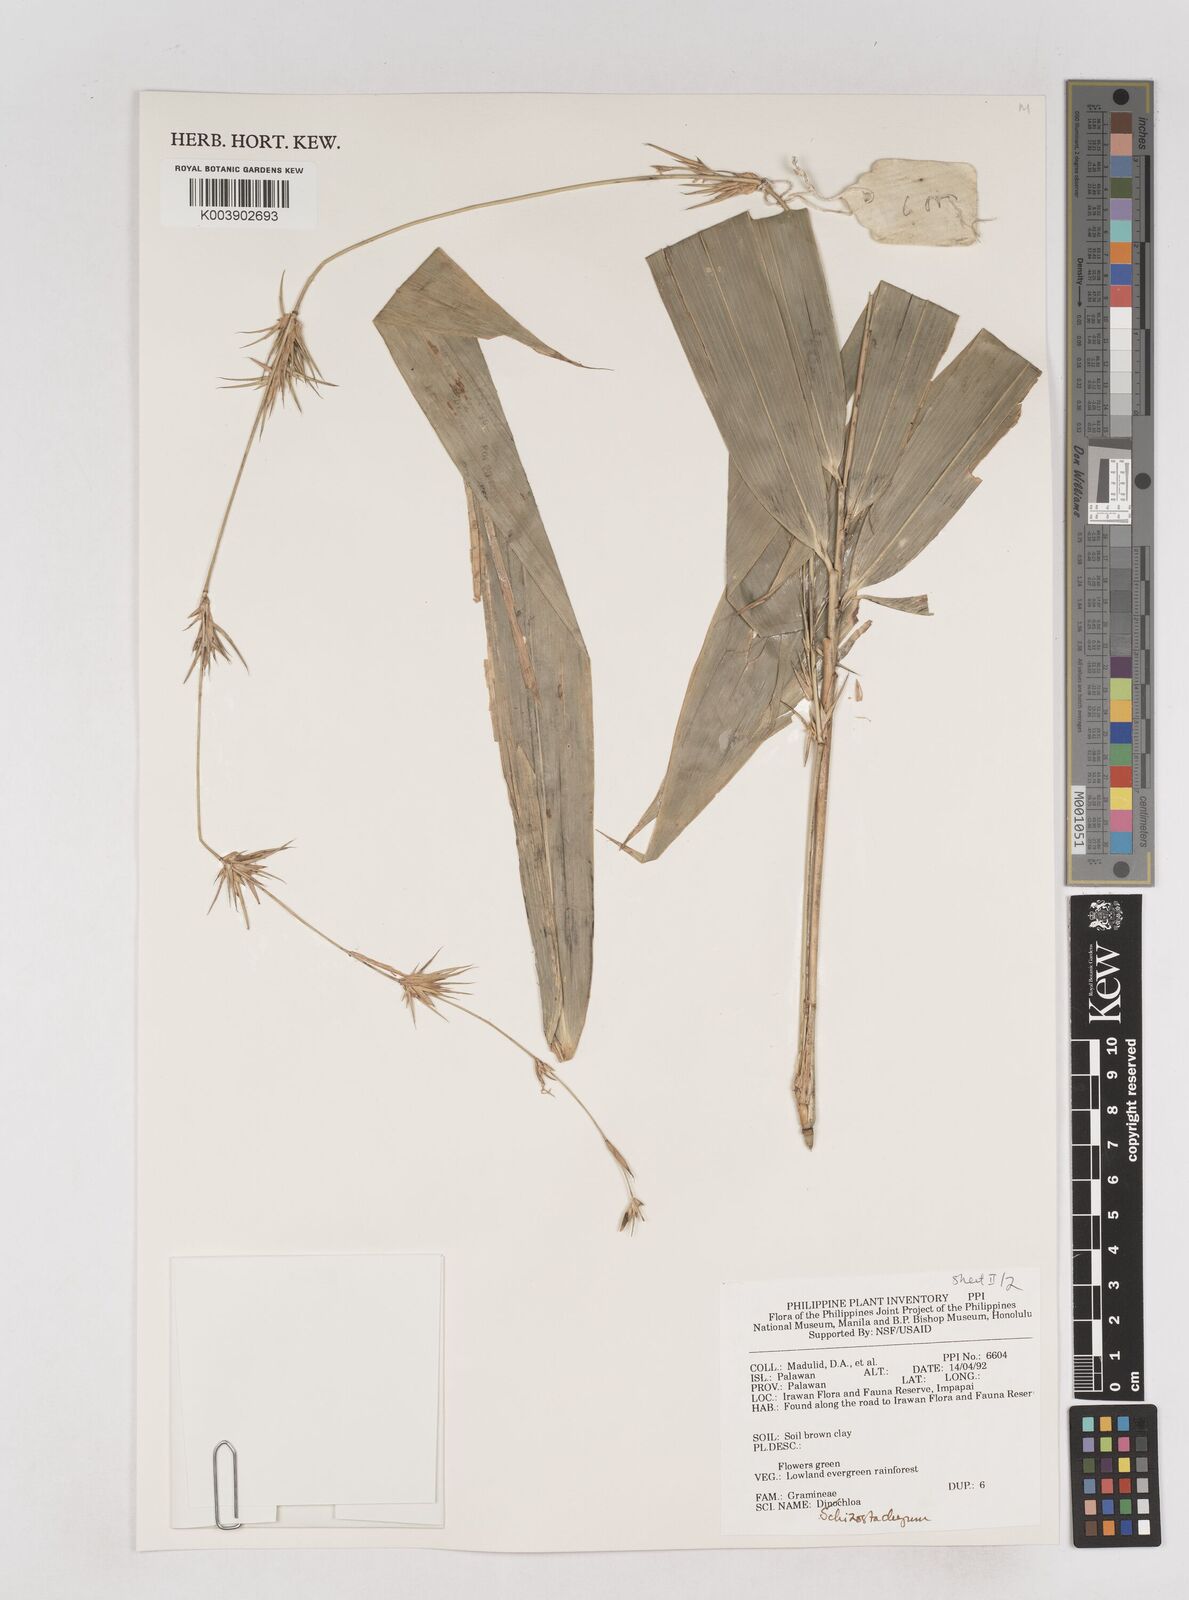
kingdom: Plantae
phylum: Tracheophyta
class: Liliopsida
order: Poales
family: Poaceae
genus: Schizostachyum
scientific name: Schizostachyum
